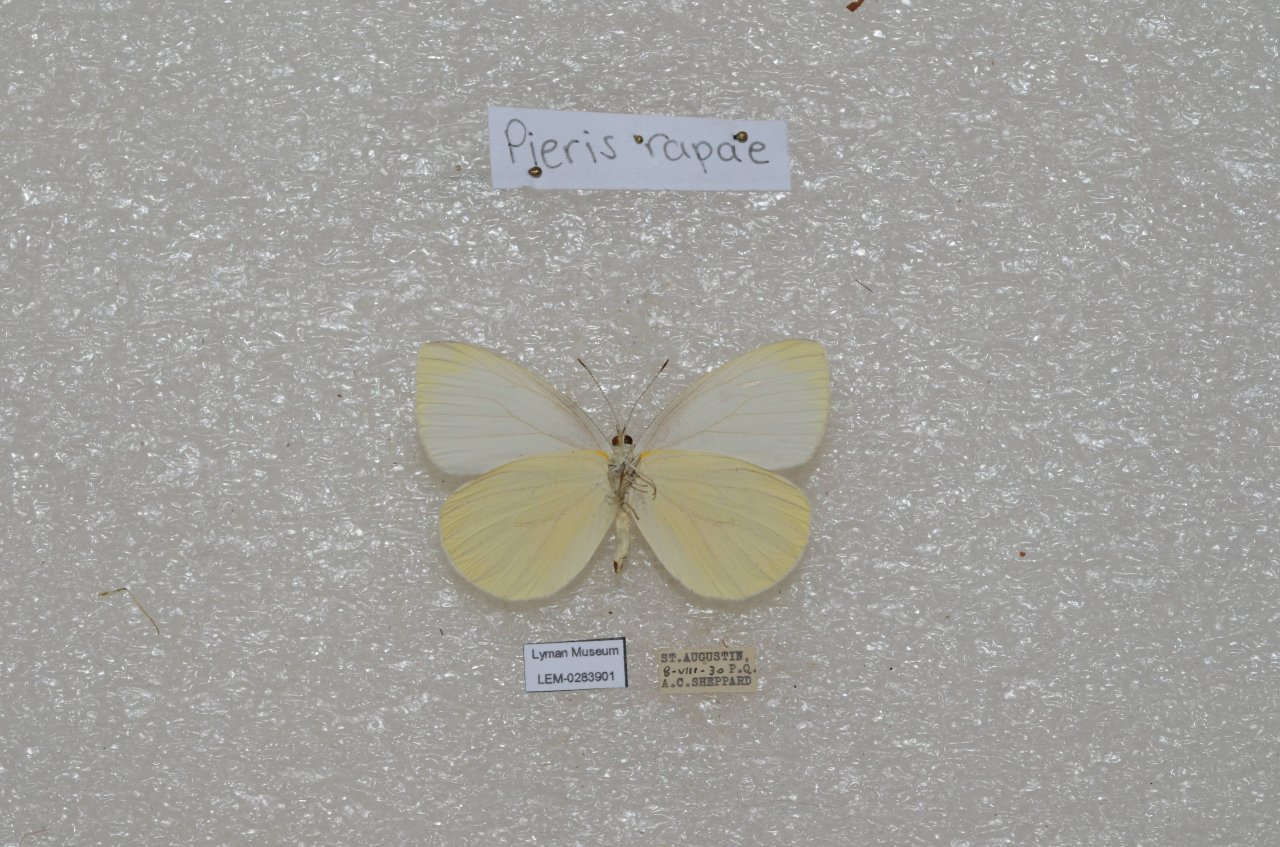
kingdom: Animalia
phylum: Arthropoda
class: Insecta
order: Lepidoptera
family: Pieridae
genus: Pieris
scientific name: Pieris rapae
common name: Cabbage White
